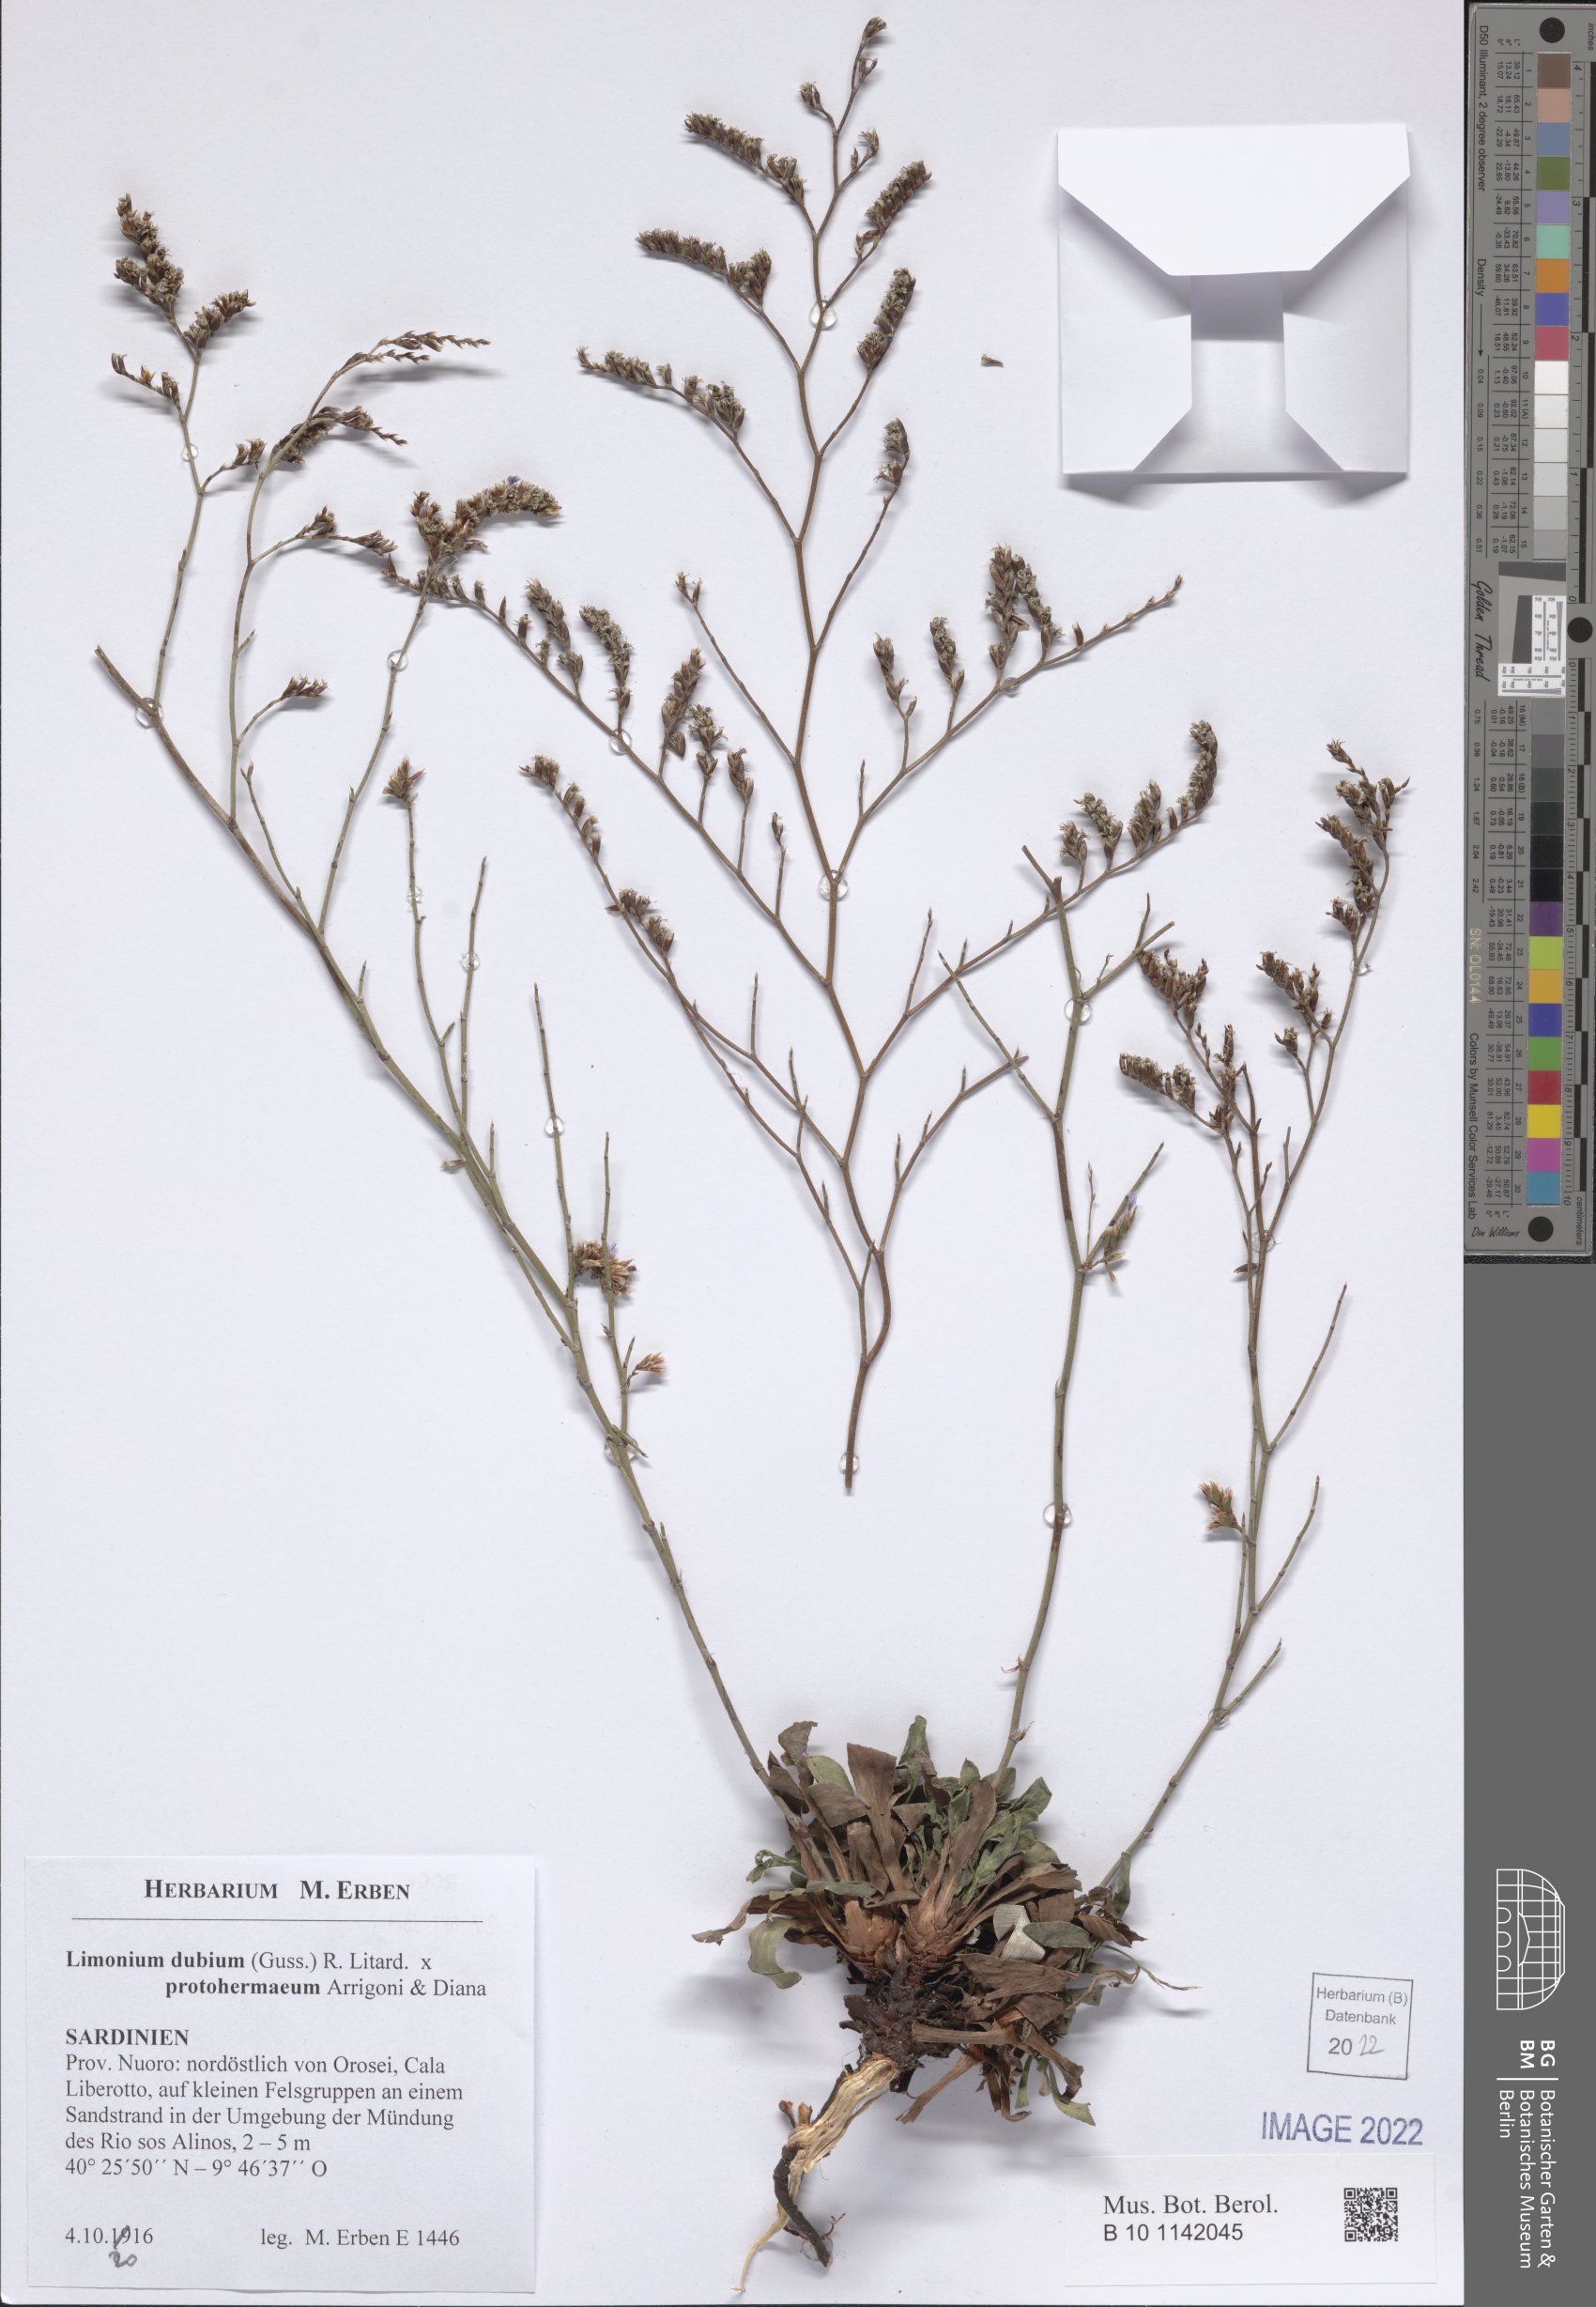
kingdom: Plantae
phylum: Tracheophyta
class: Magnoliopsida
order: Caryophyllales
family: Plumbaginaceae
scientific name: Plumbaginaceae
